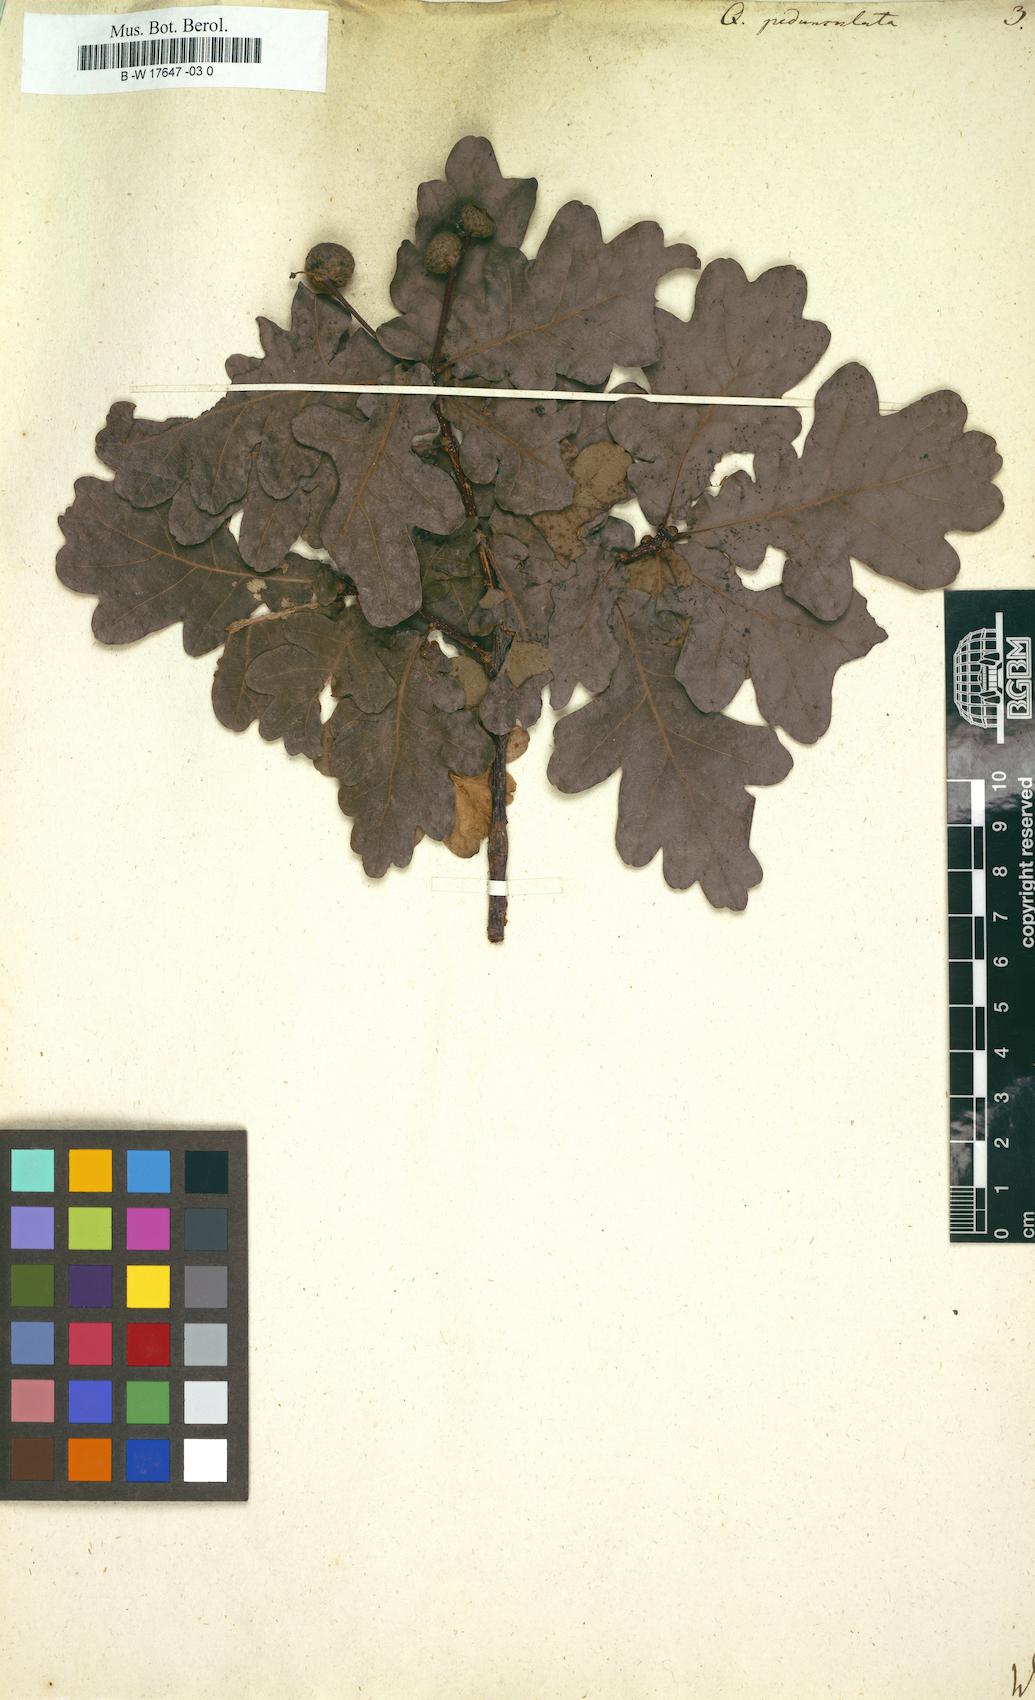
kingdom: Plantae
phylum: Tracheophyta
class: Magnoliopsida
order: Fagales
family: Fagaceae
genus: Quercus
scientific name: Quercus pedunculata
